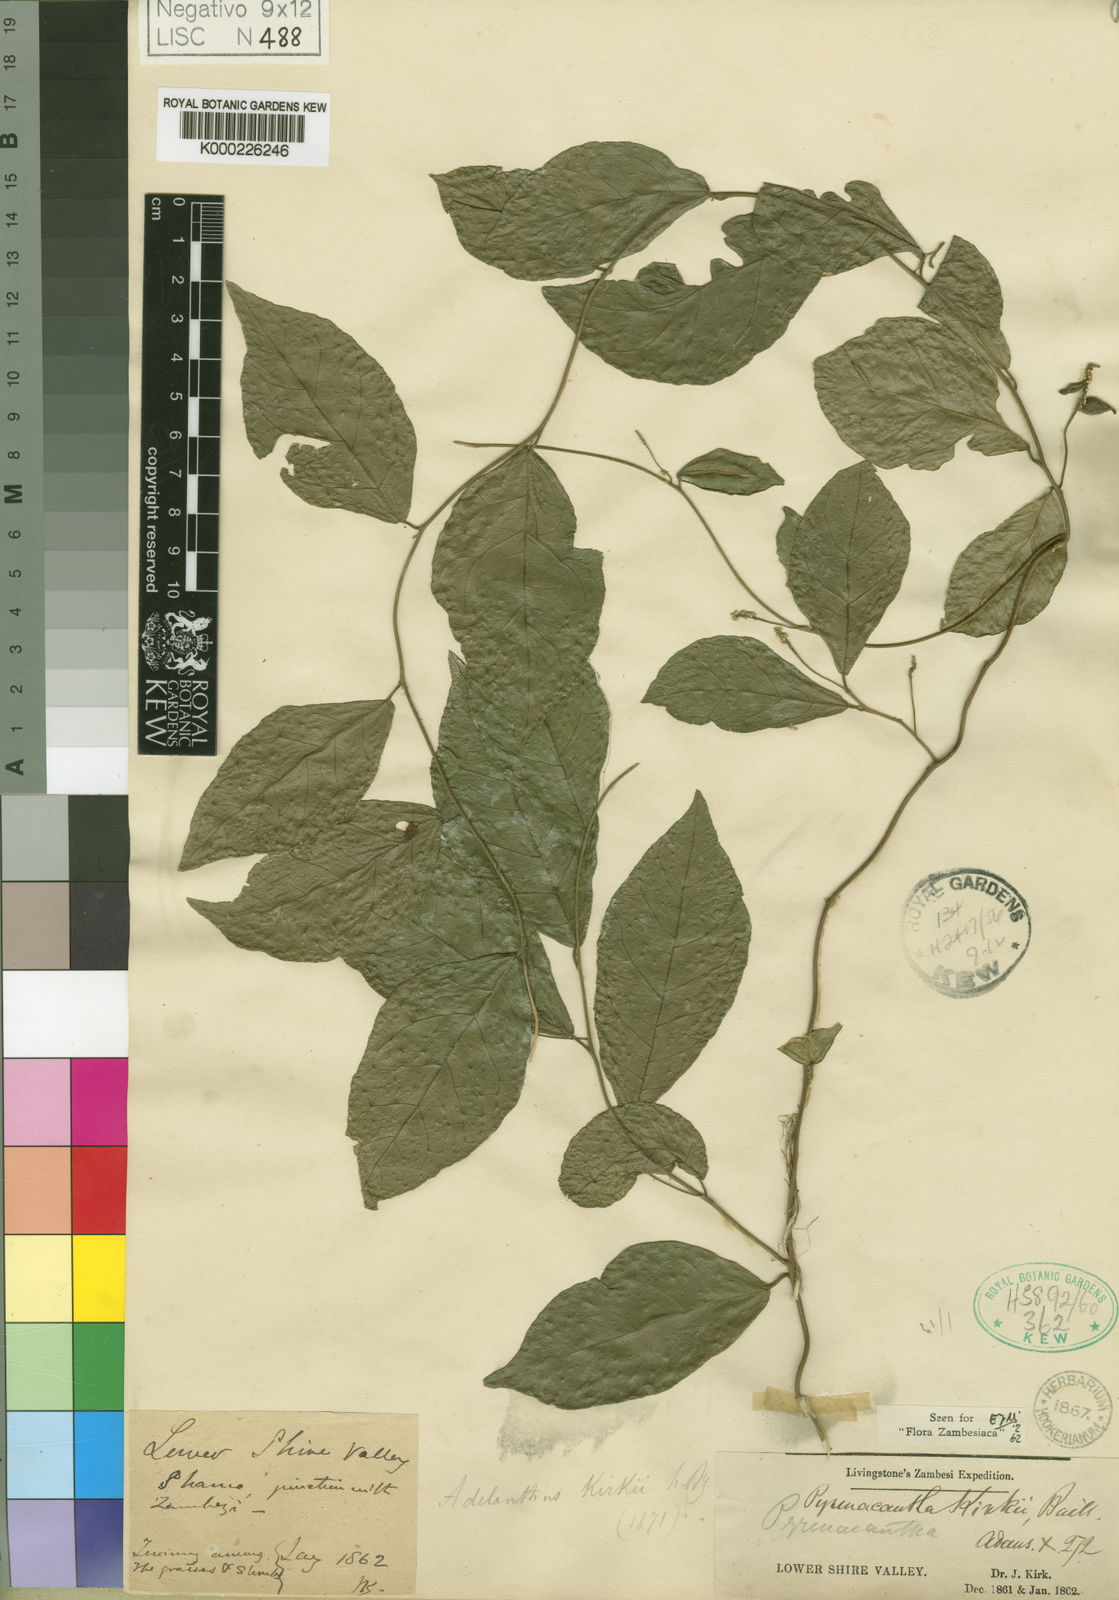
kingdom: Plantae
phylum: Tracheophyta
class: Magnoliopsida
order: Icacinales
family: Icacinaceae
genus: Pyrenacantha
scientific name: Pyrenacantha kirkii
